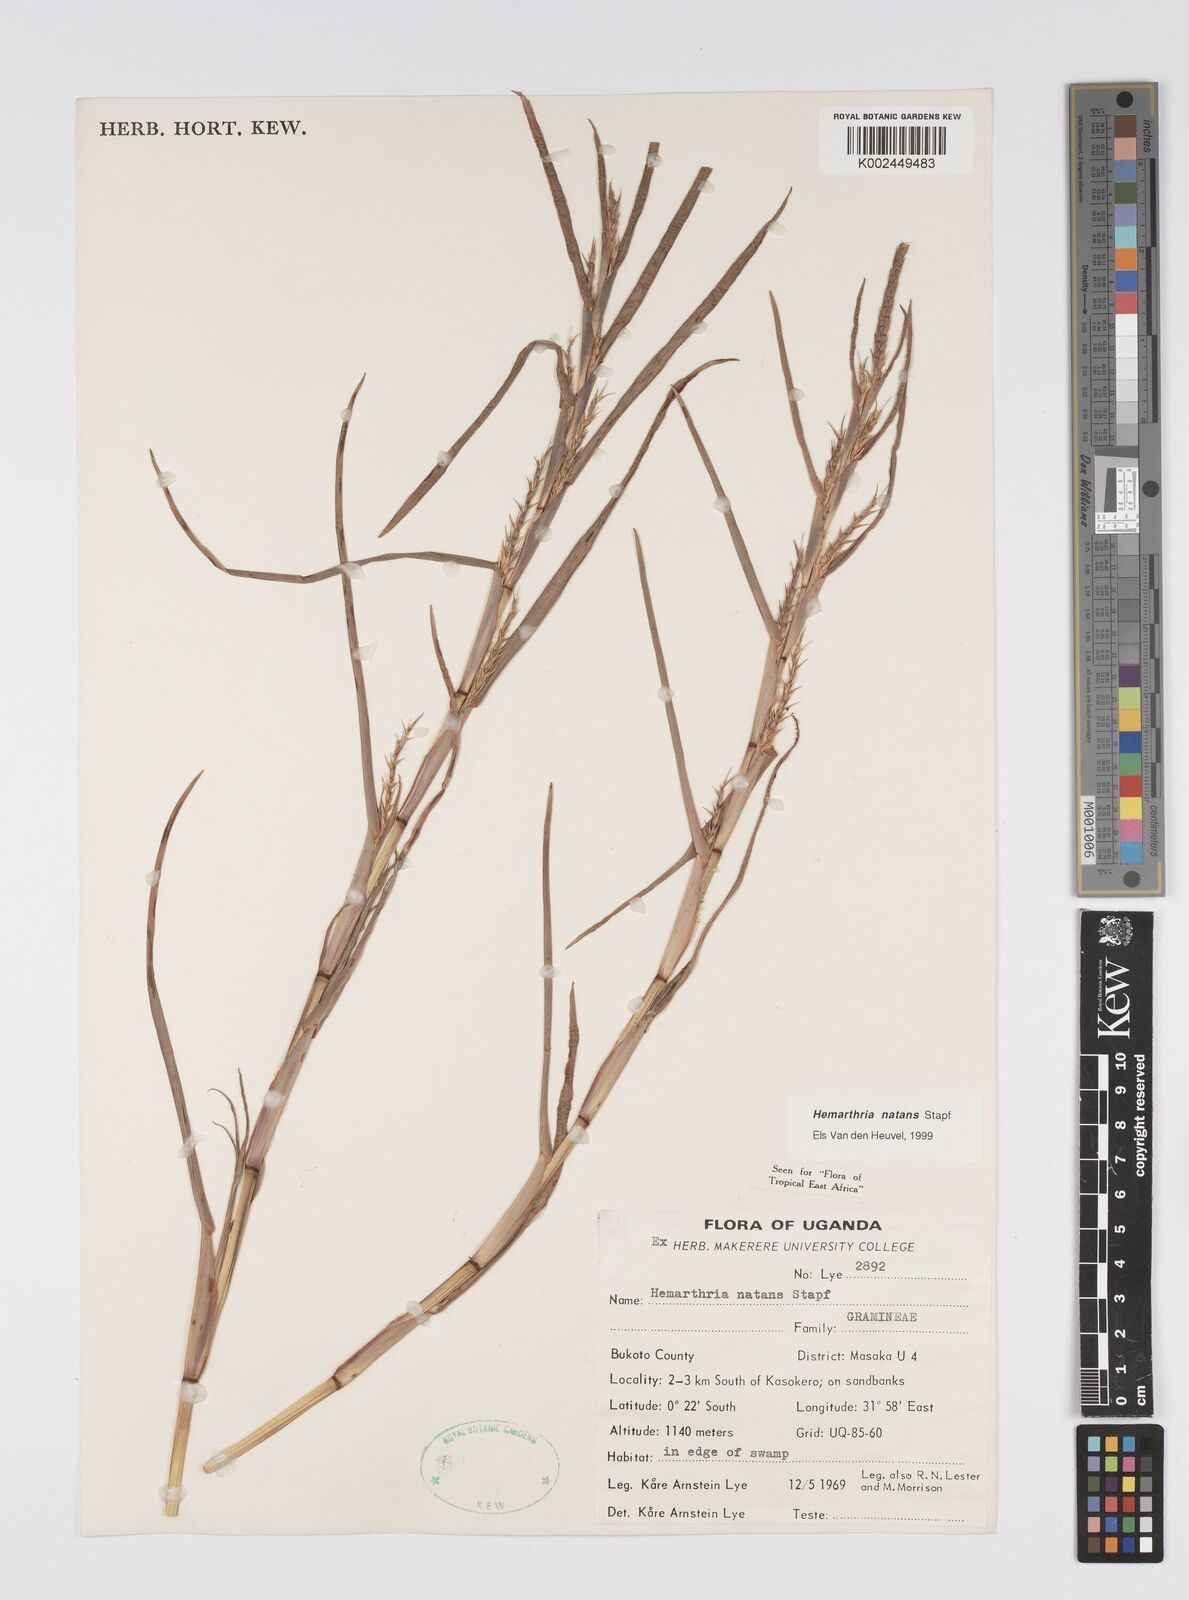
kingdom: Plantae
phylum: Tracheophyta
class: Liliopsida
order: Poales
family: Poaceae
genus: Hemarthria
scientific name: Hemarthria natans
